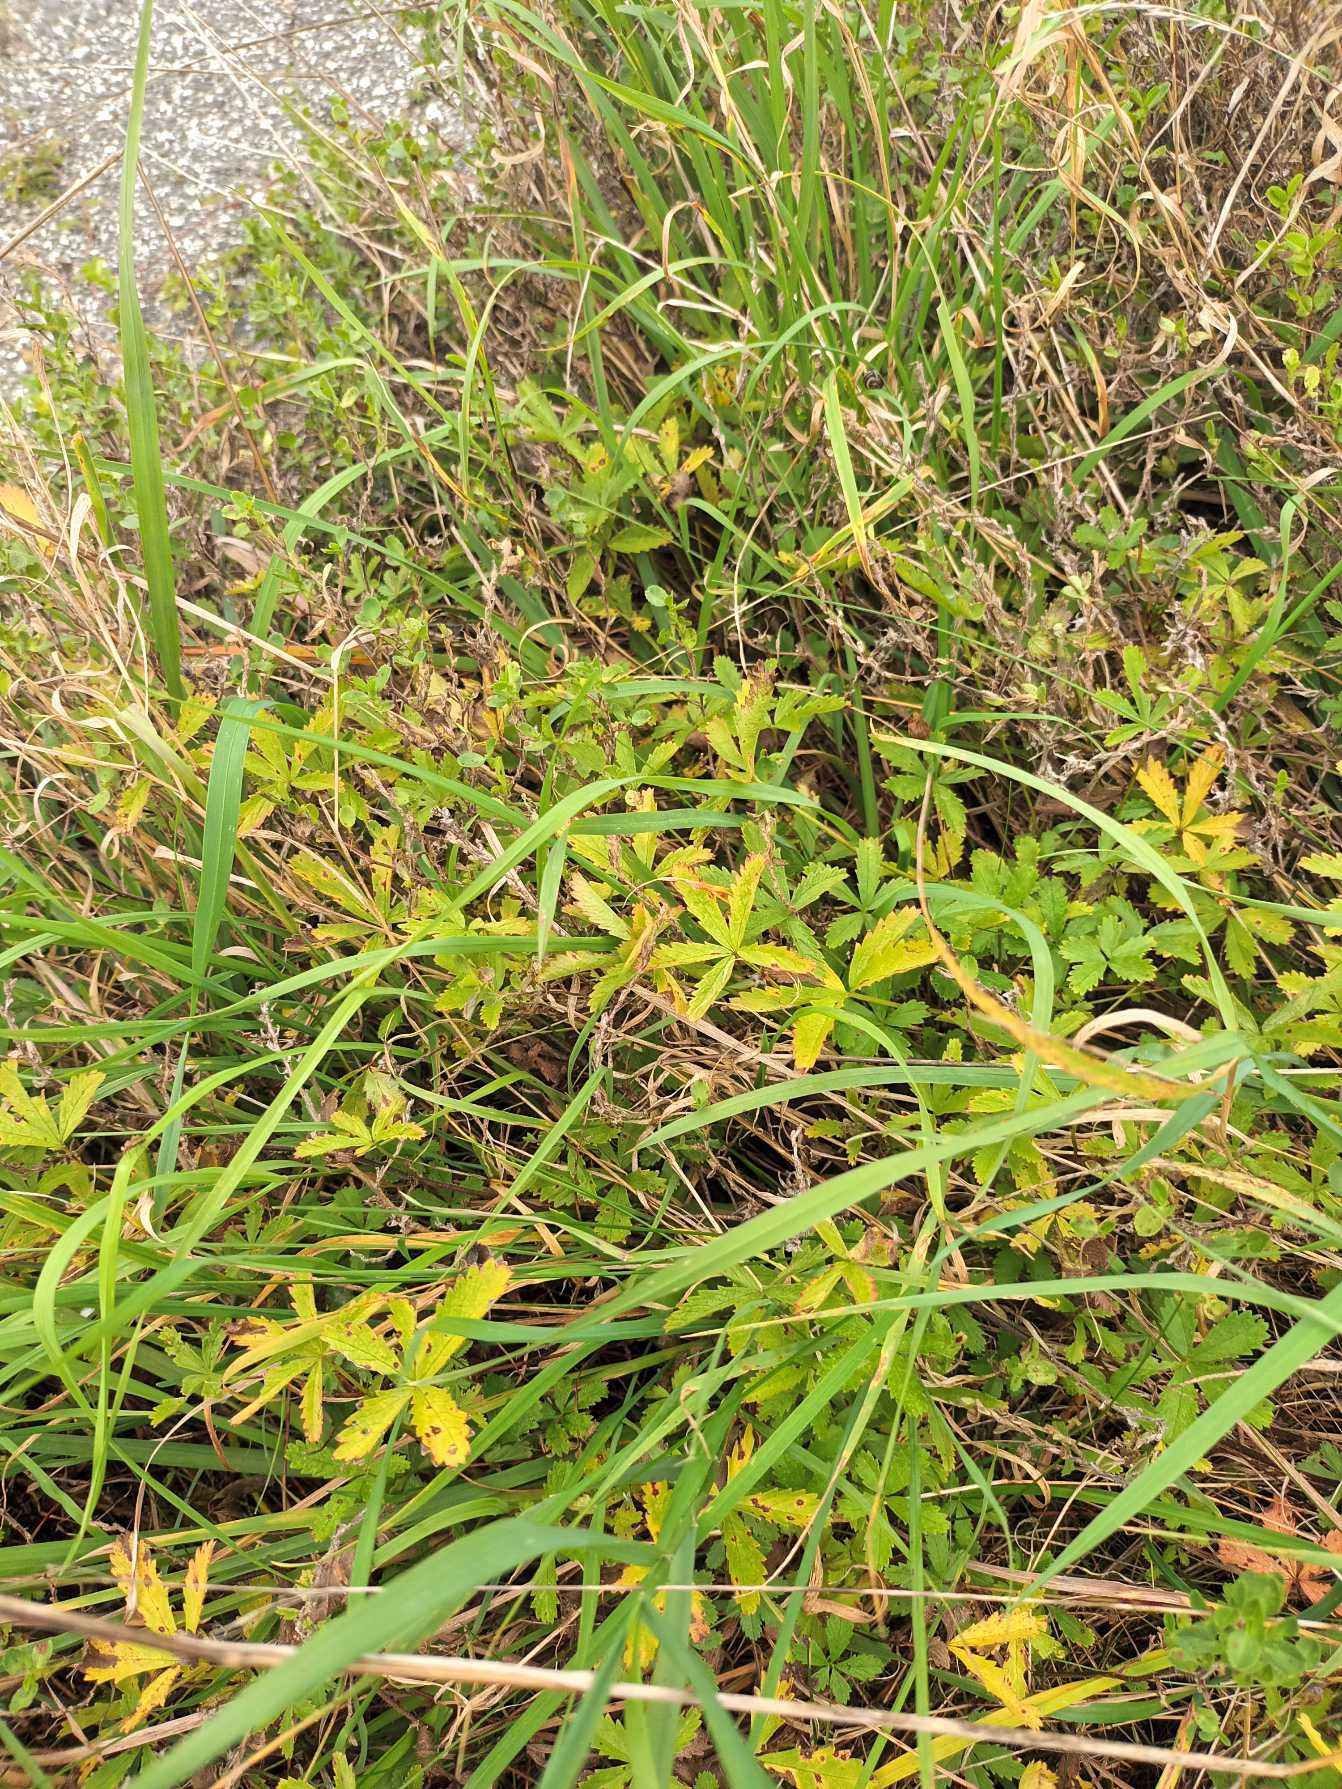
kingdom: Plantae
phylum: Tracheophyta
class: Magnoliopsida
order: Rosales
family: Rosaceae
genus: Potentilla
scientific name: Potentilla reptans
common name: Krybende potentil
